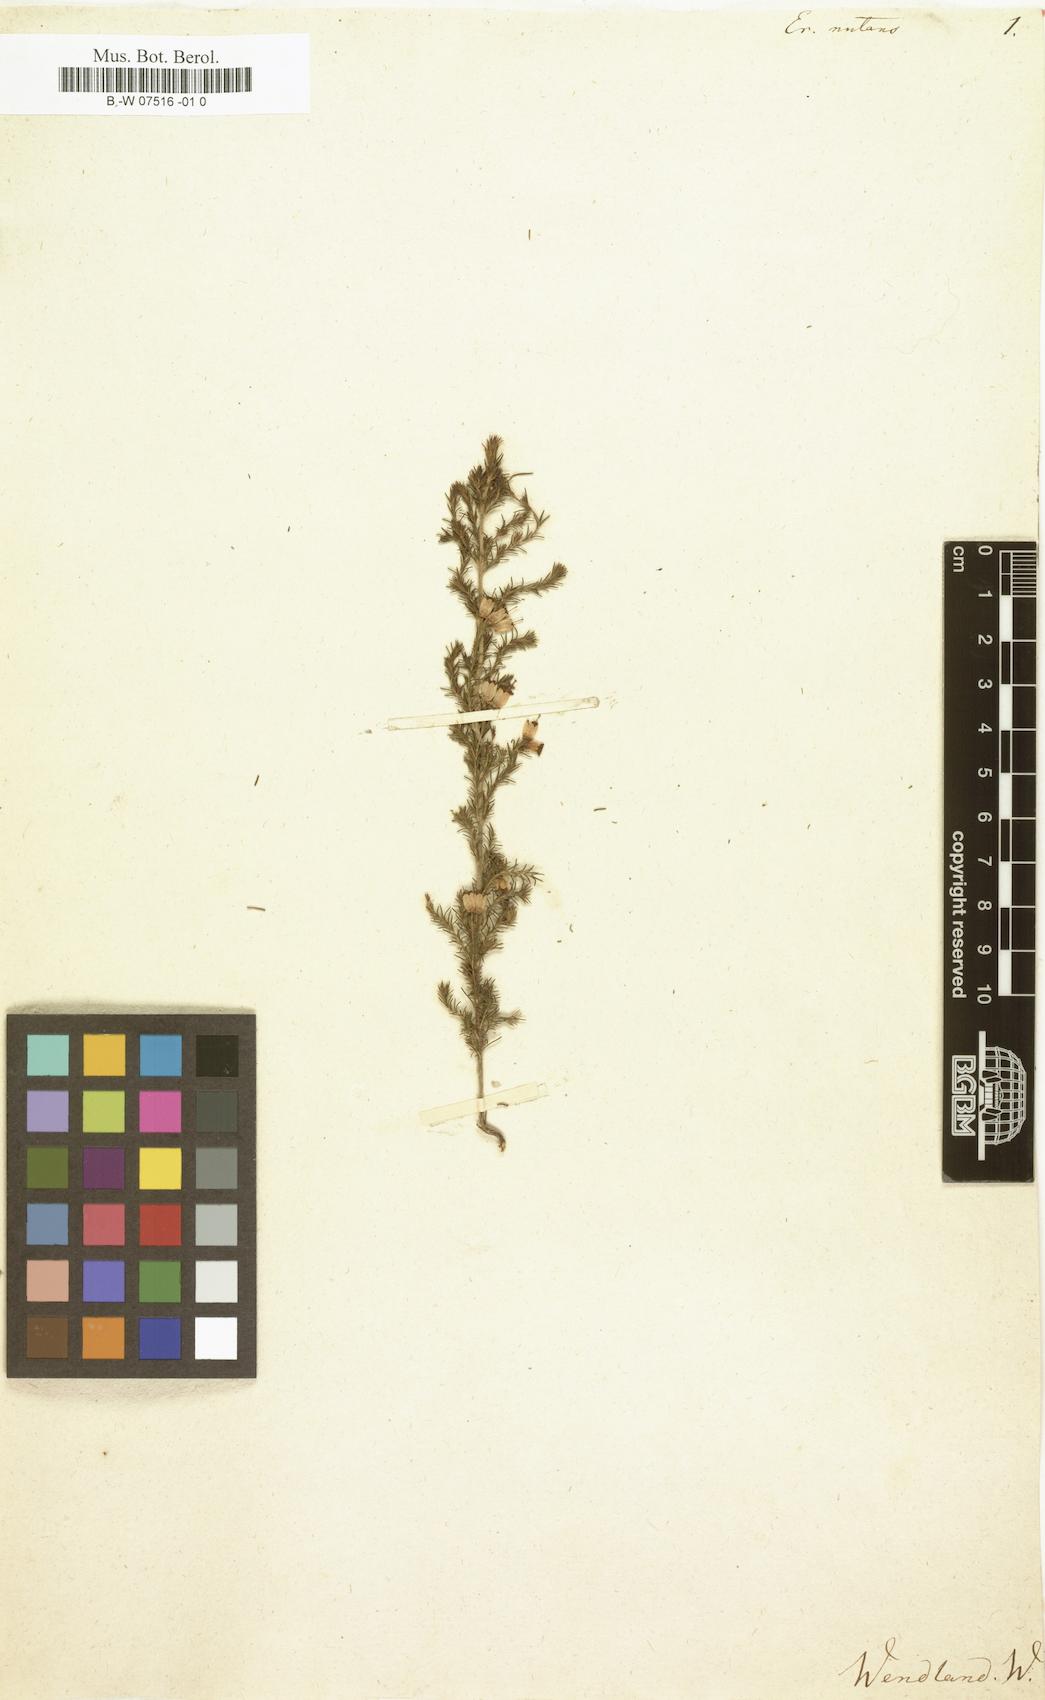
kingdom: Plantae
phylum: Tracheophyta
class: Magnoliopsida
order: Ericales
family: Ericaceae
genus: Erica
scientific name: Erica nutans
